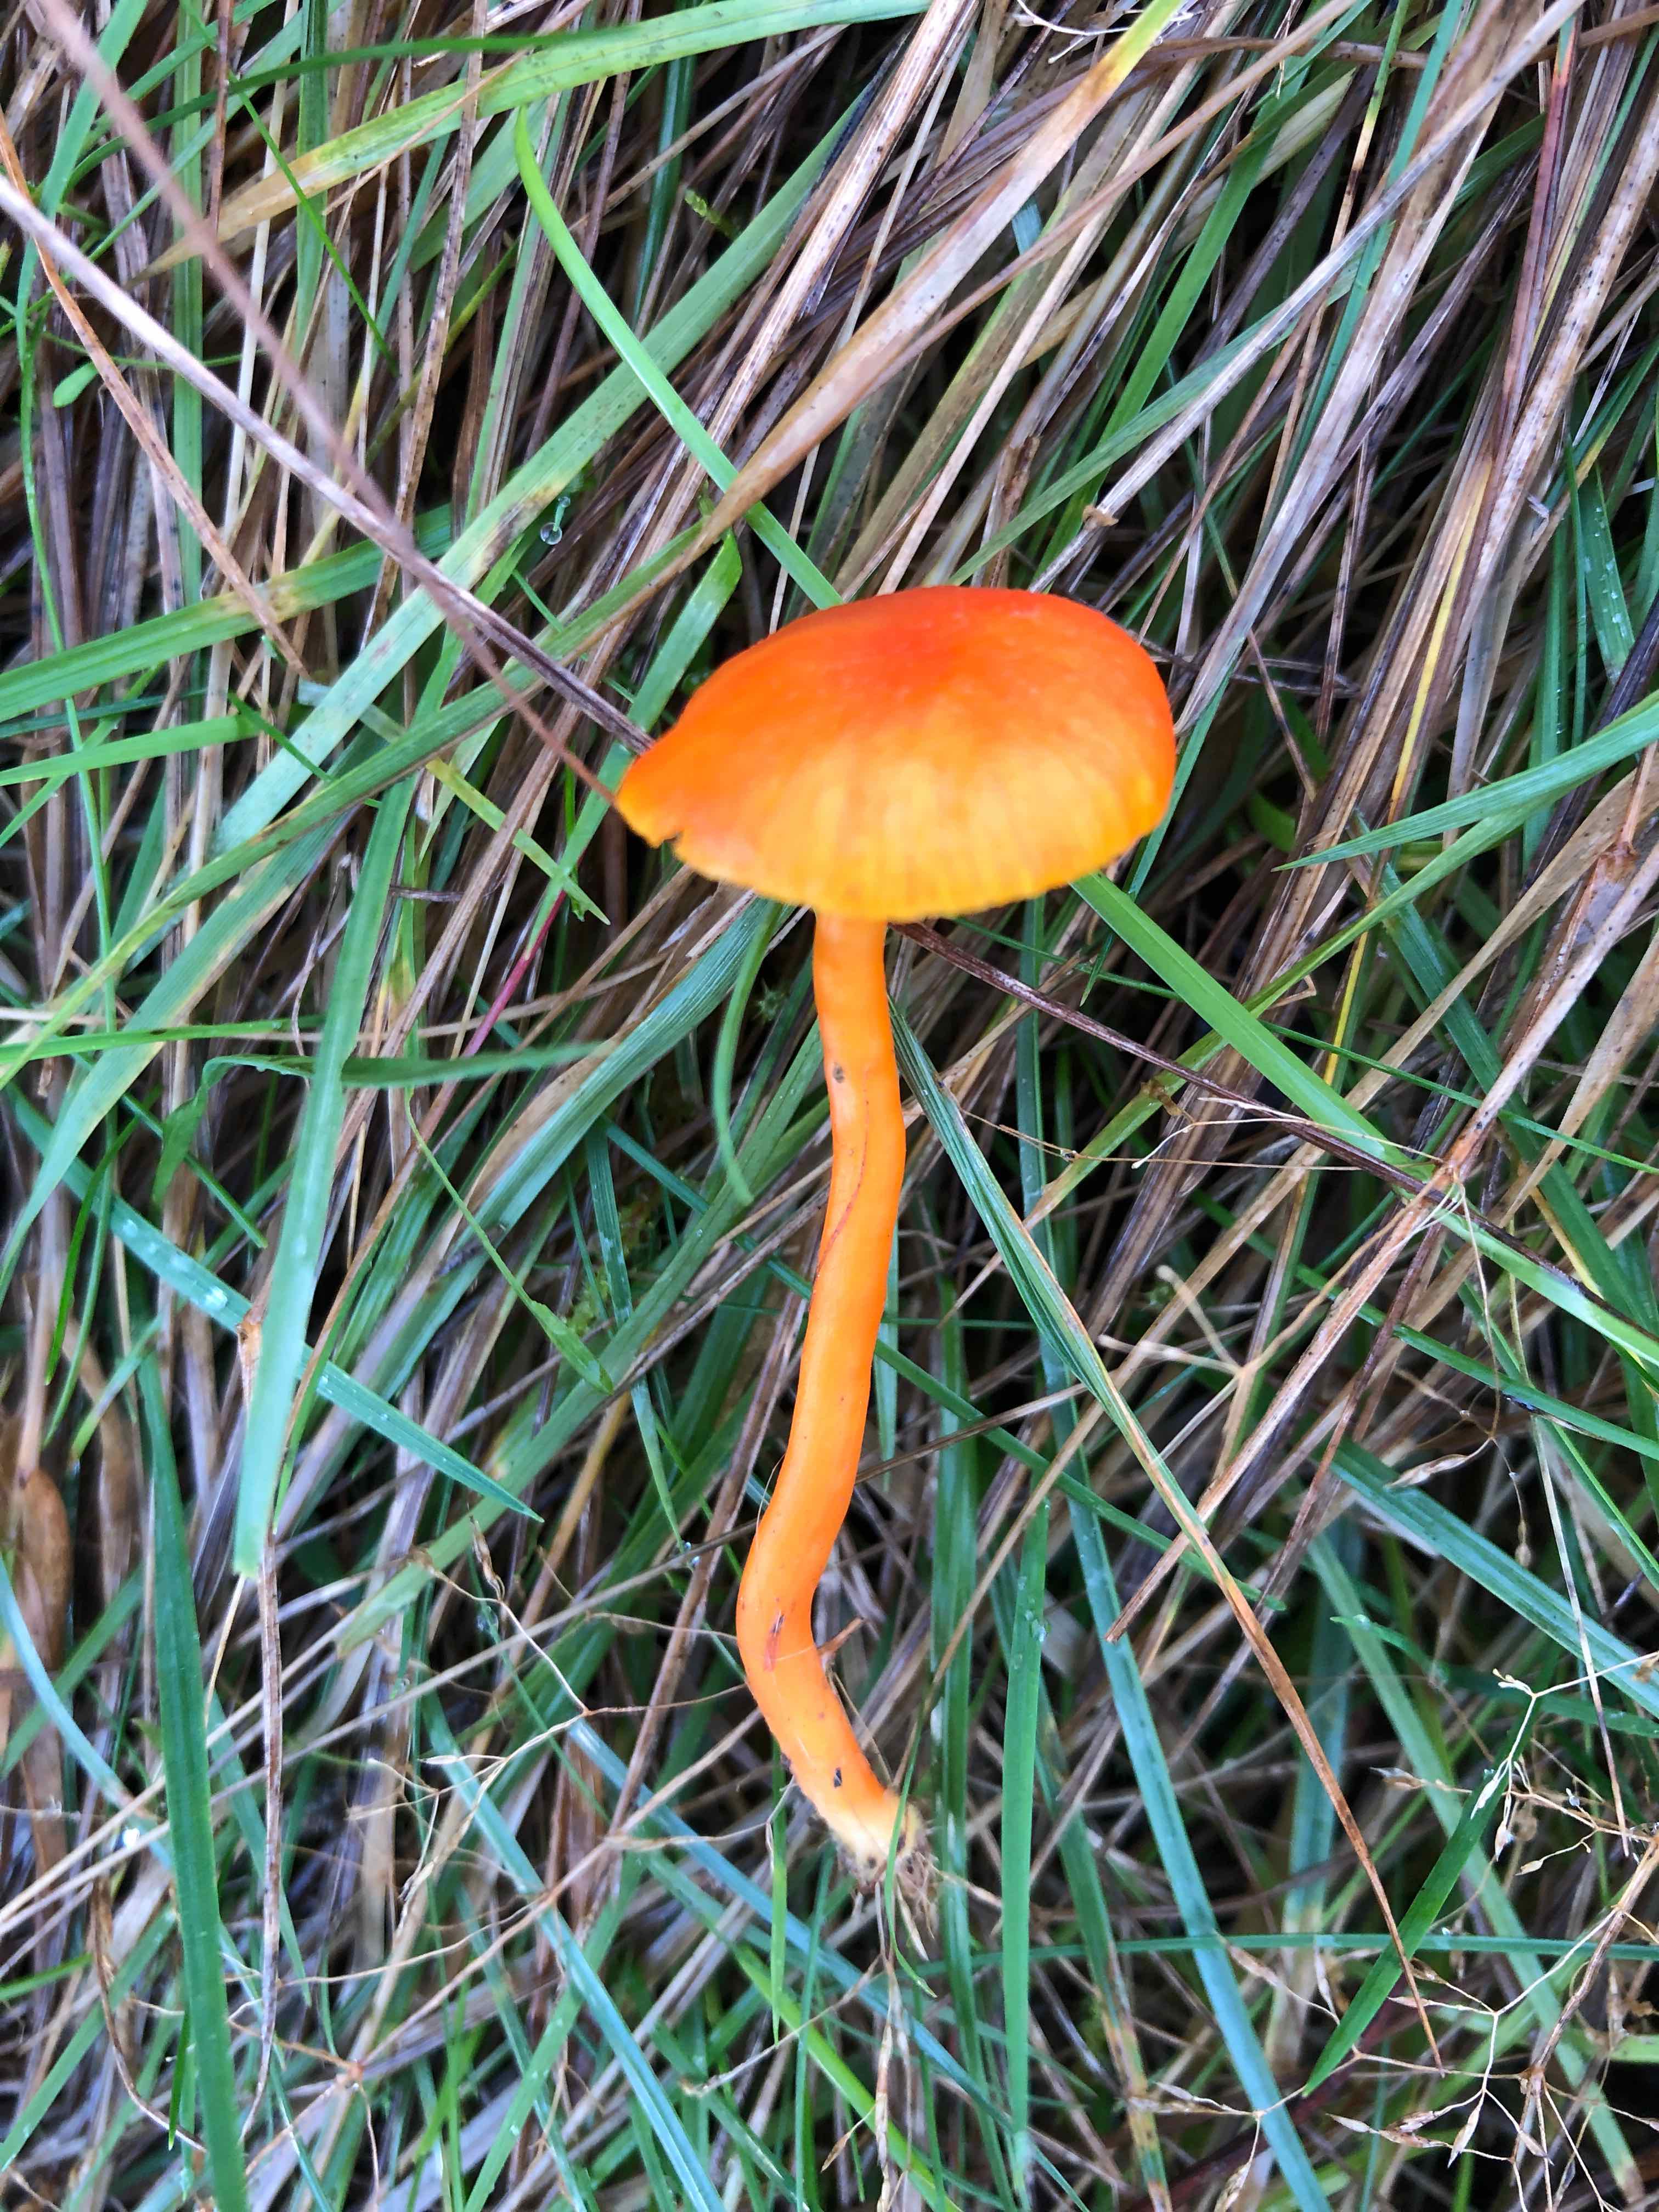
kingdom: Fungi
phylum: Basidiomycota
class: Agaricomycetes
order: Agaricales
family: Hygrophoraceae
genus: Hygrocybe
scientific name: Hygrocybe miniata
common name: mønje-vokshat
